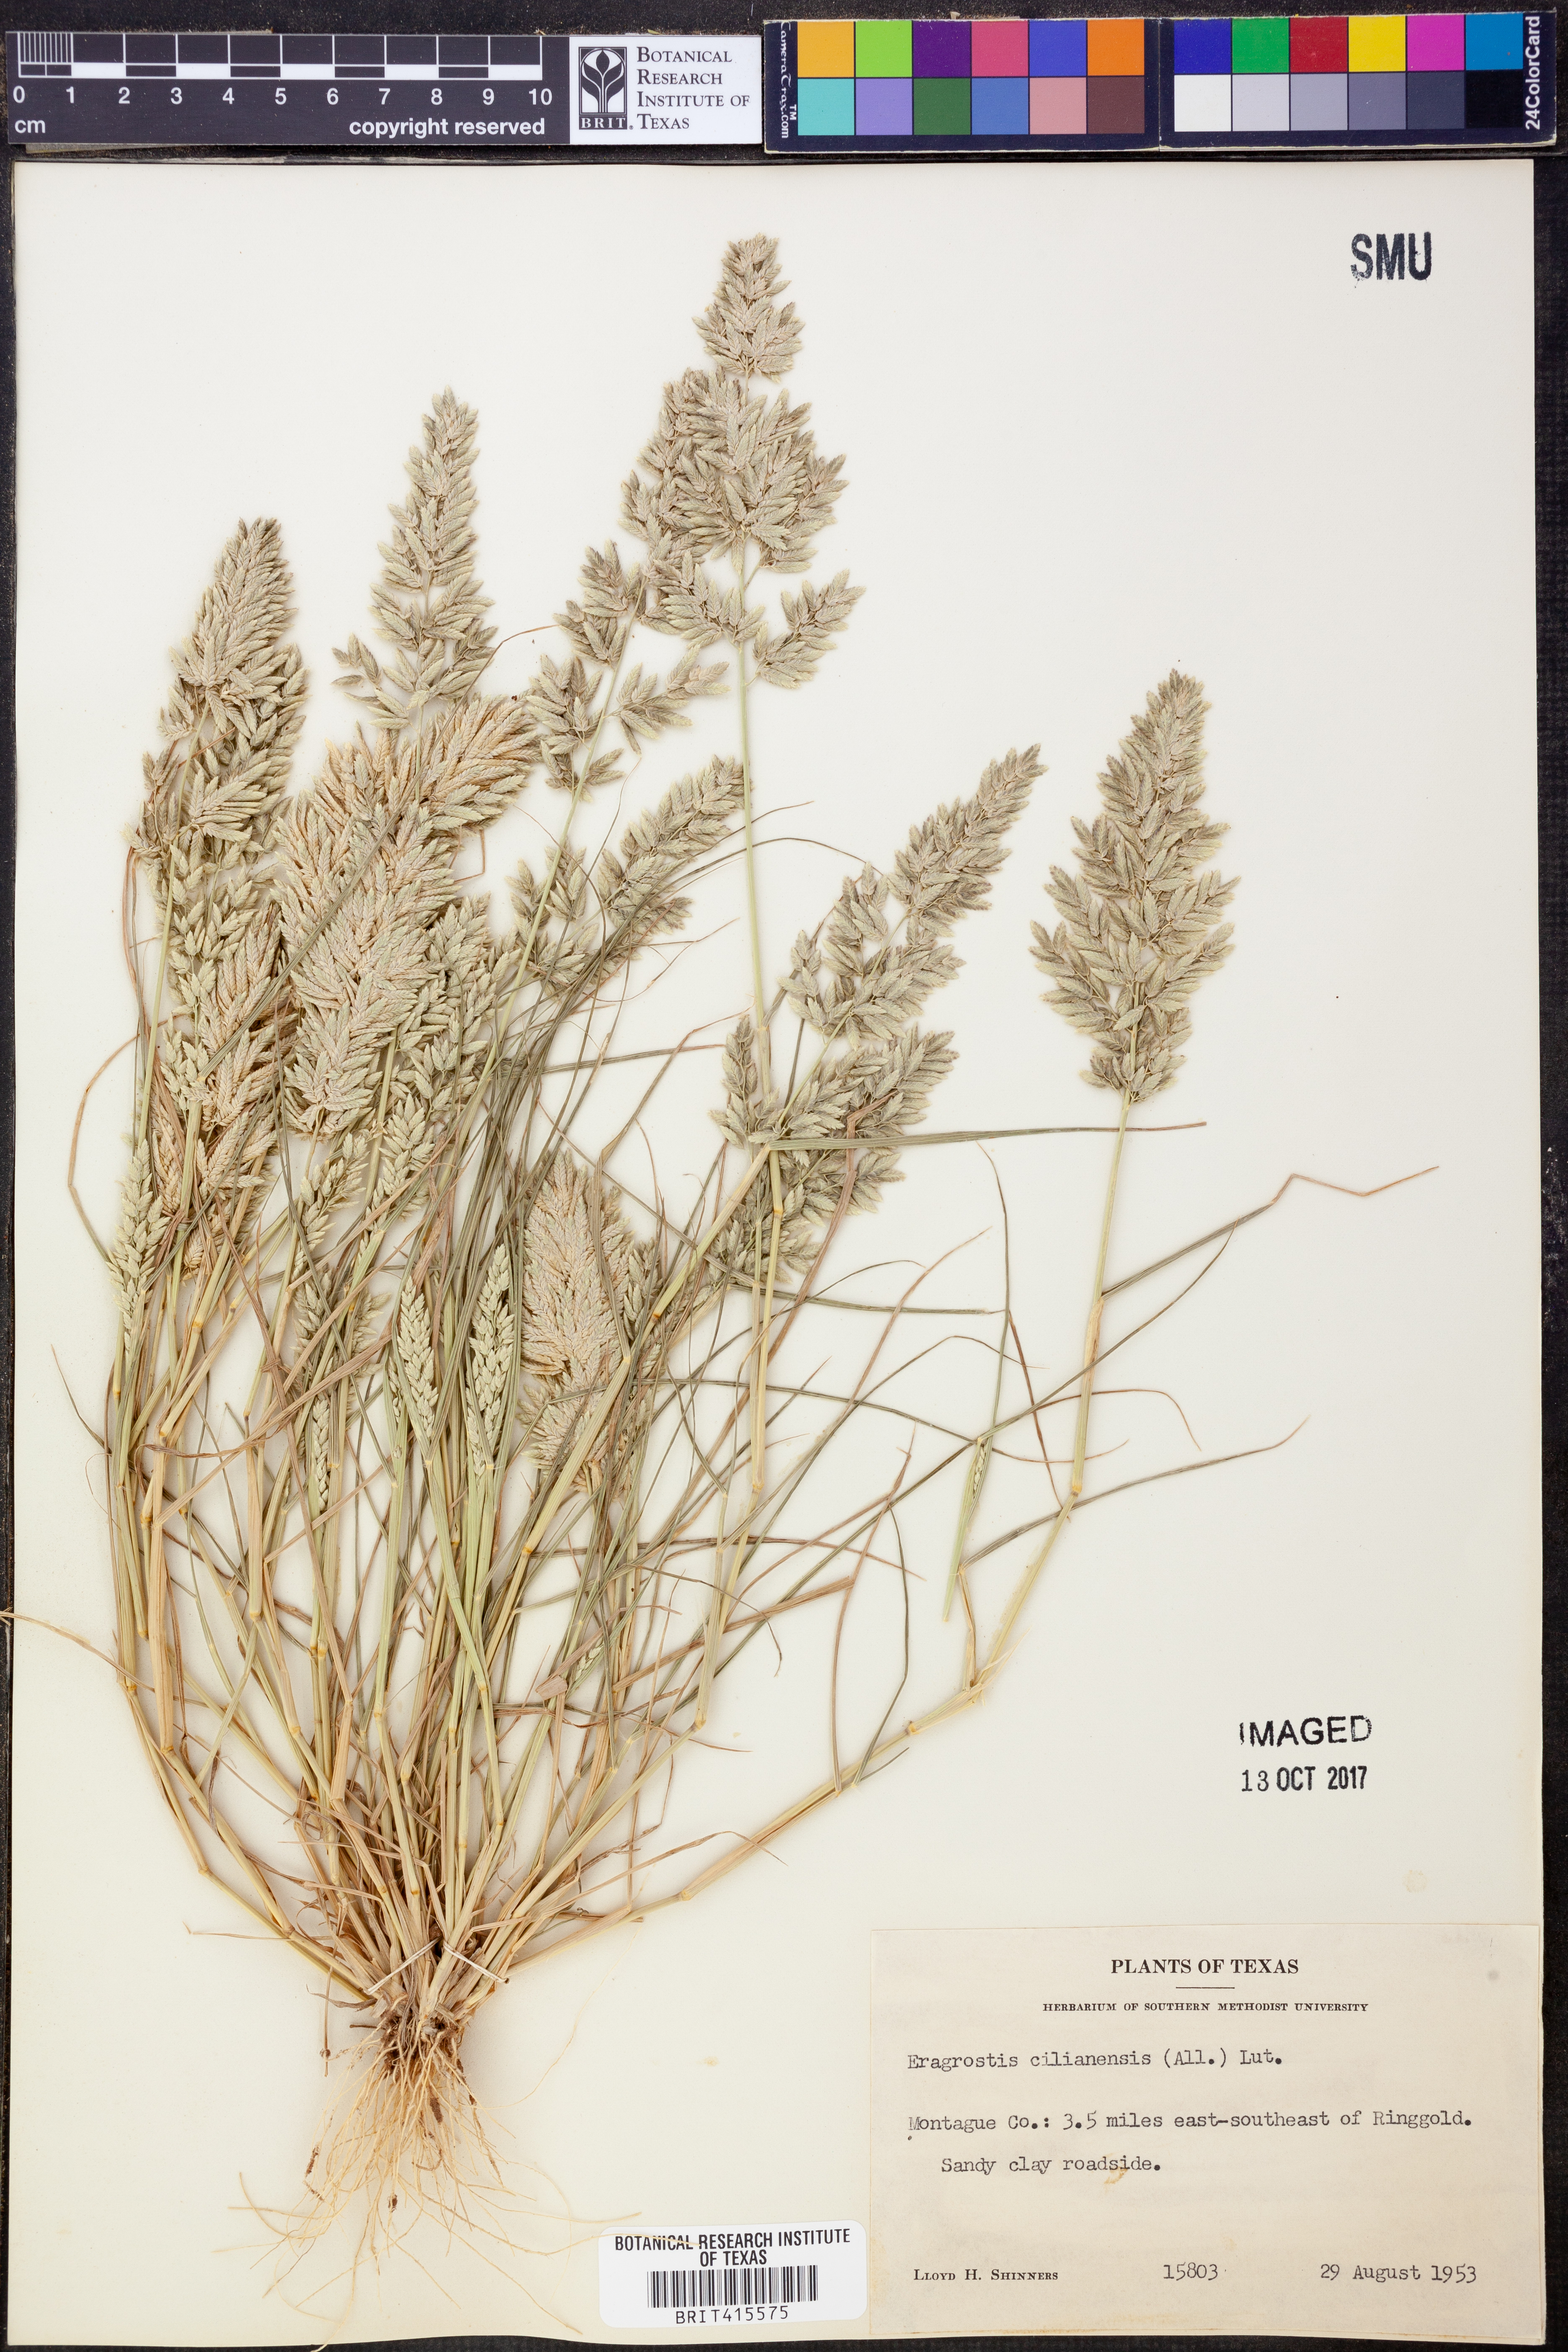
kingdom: Plantae
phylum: Tracheophyta
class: Liliopsida
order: Poales
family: Poaceae
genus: Eragrostis
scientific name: Eragrostis cilianensis
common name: Stinkgrass
